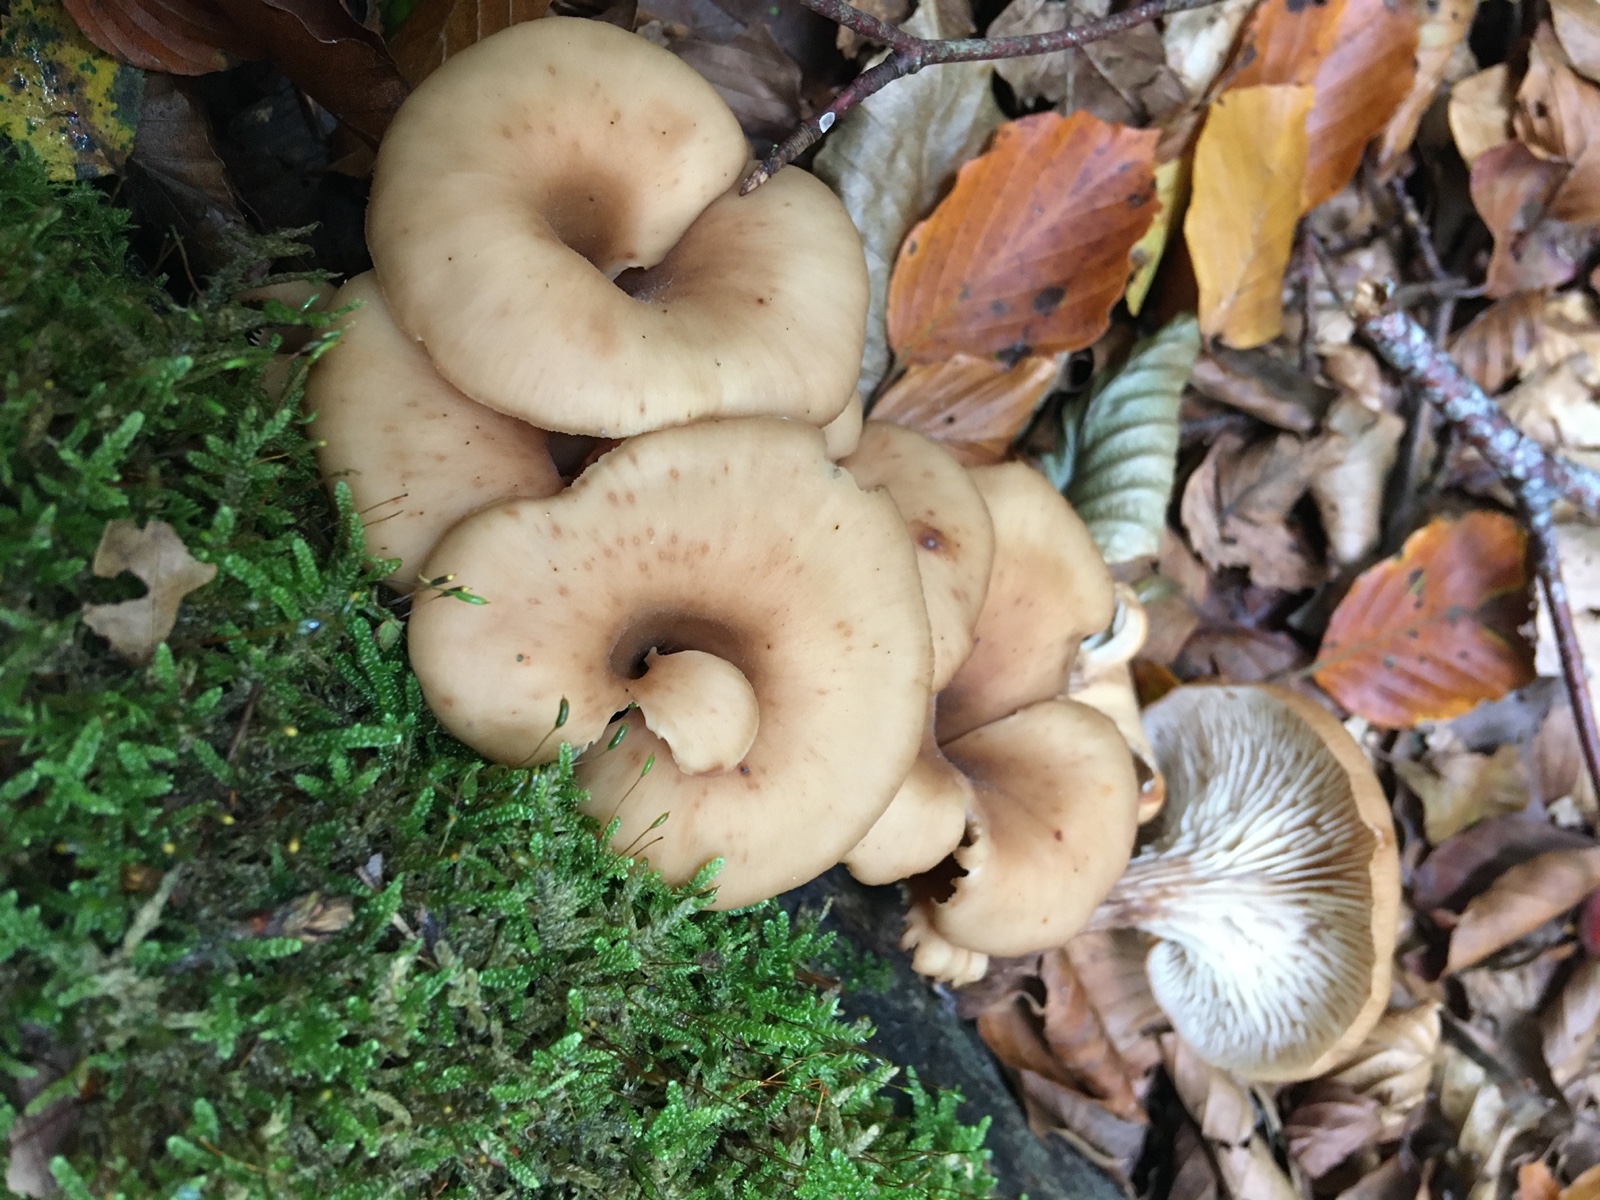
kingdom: Fungi
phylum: Basidiomycota
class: Agaricomycetes
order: Russulales
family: Auriscalpiaceae
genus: Lentinellus
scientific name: Lentinellus cochleatus
